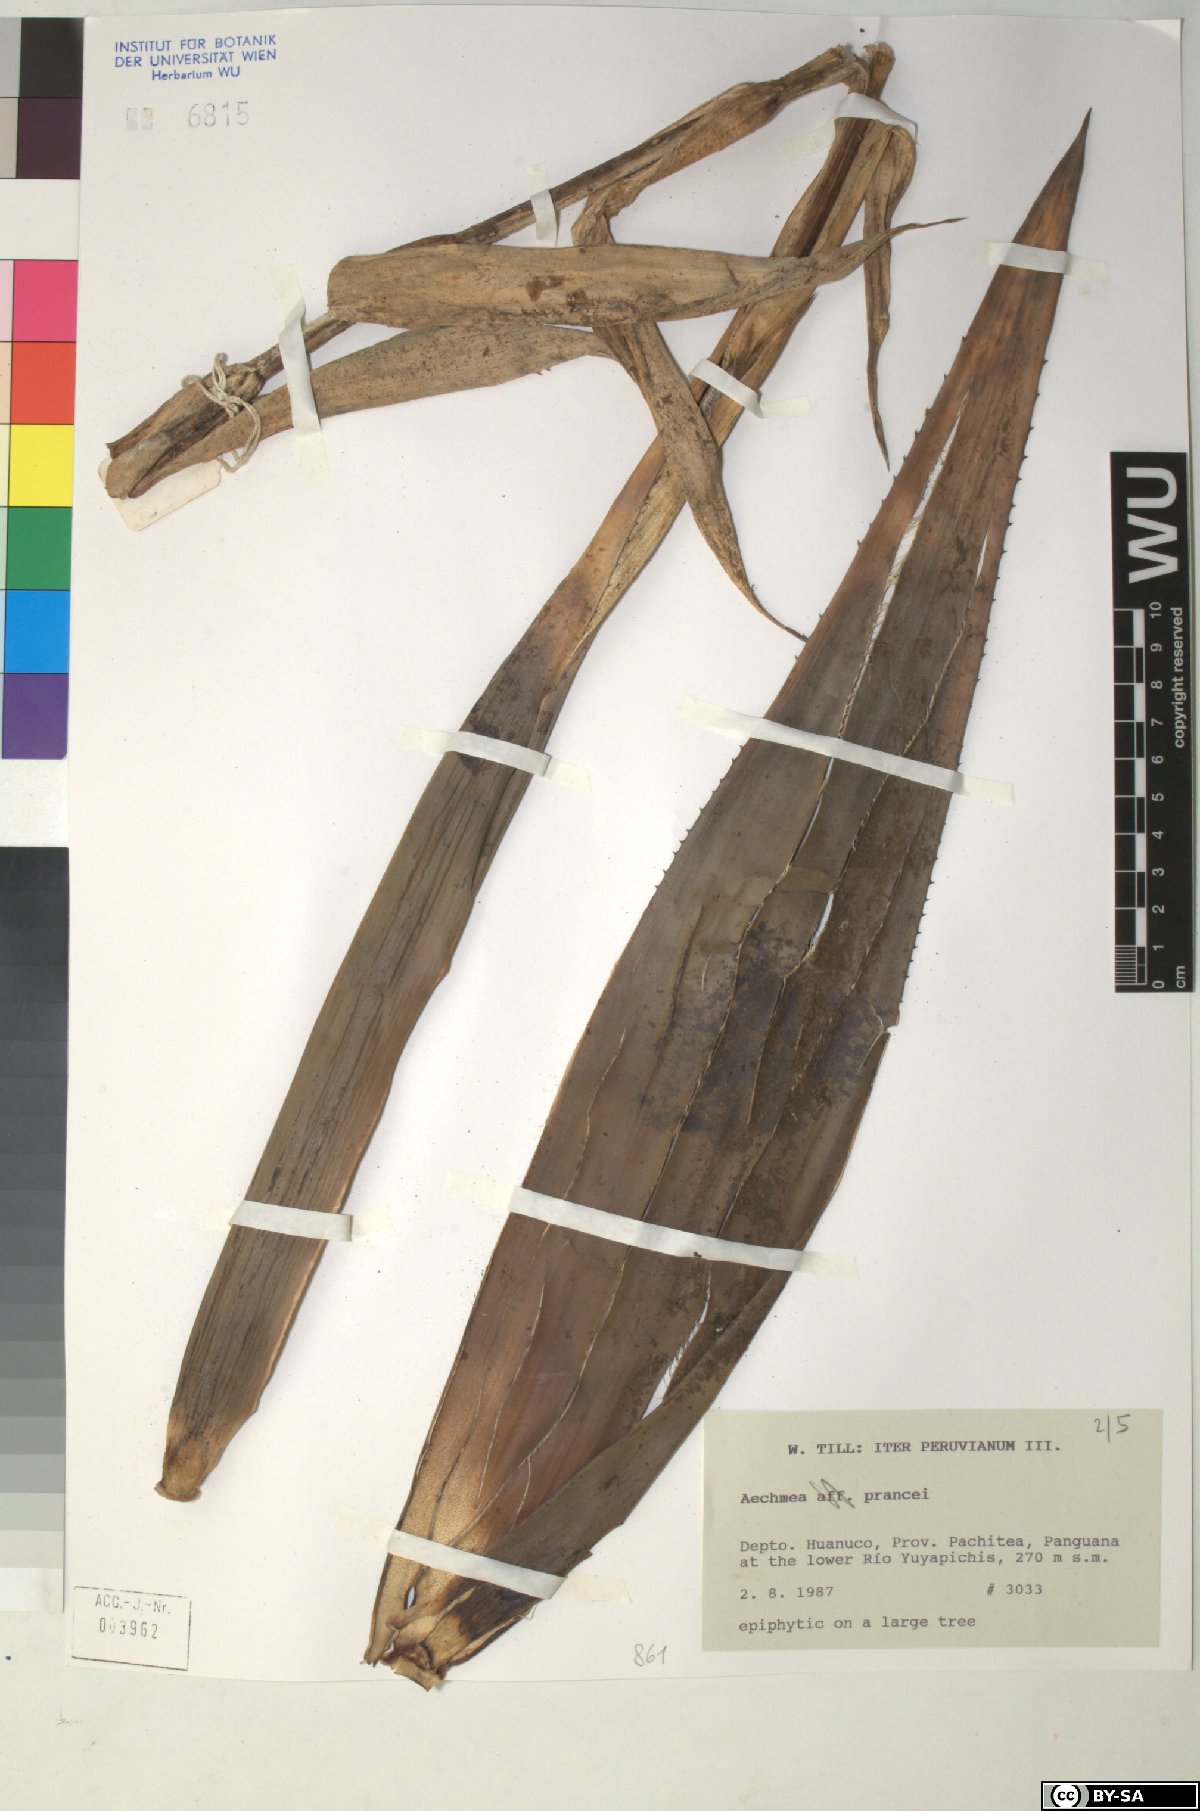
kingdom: Plantae
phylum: Tracheophyta
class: Liliopsida
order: Poales
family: Bromeliaceae
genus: Aechmea
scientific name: Aechmea prancei
